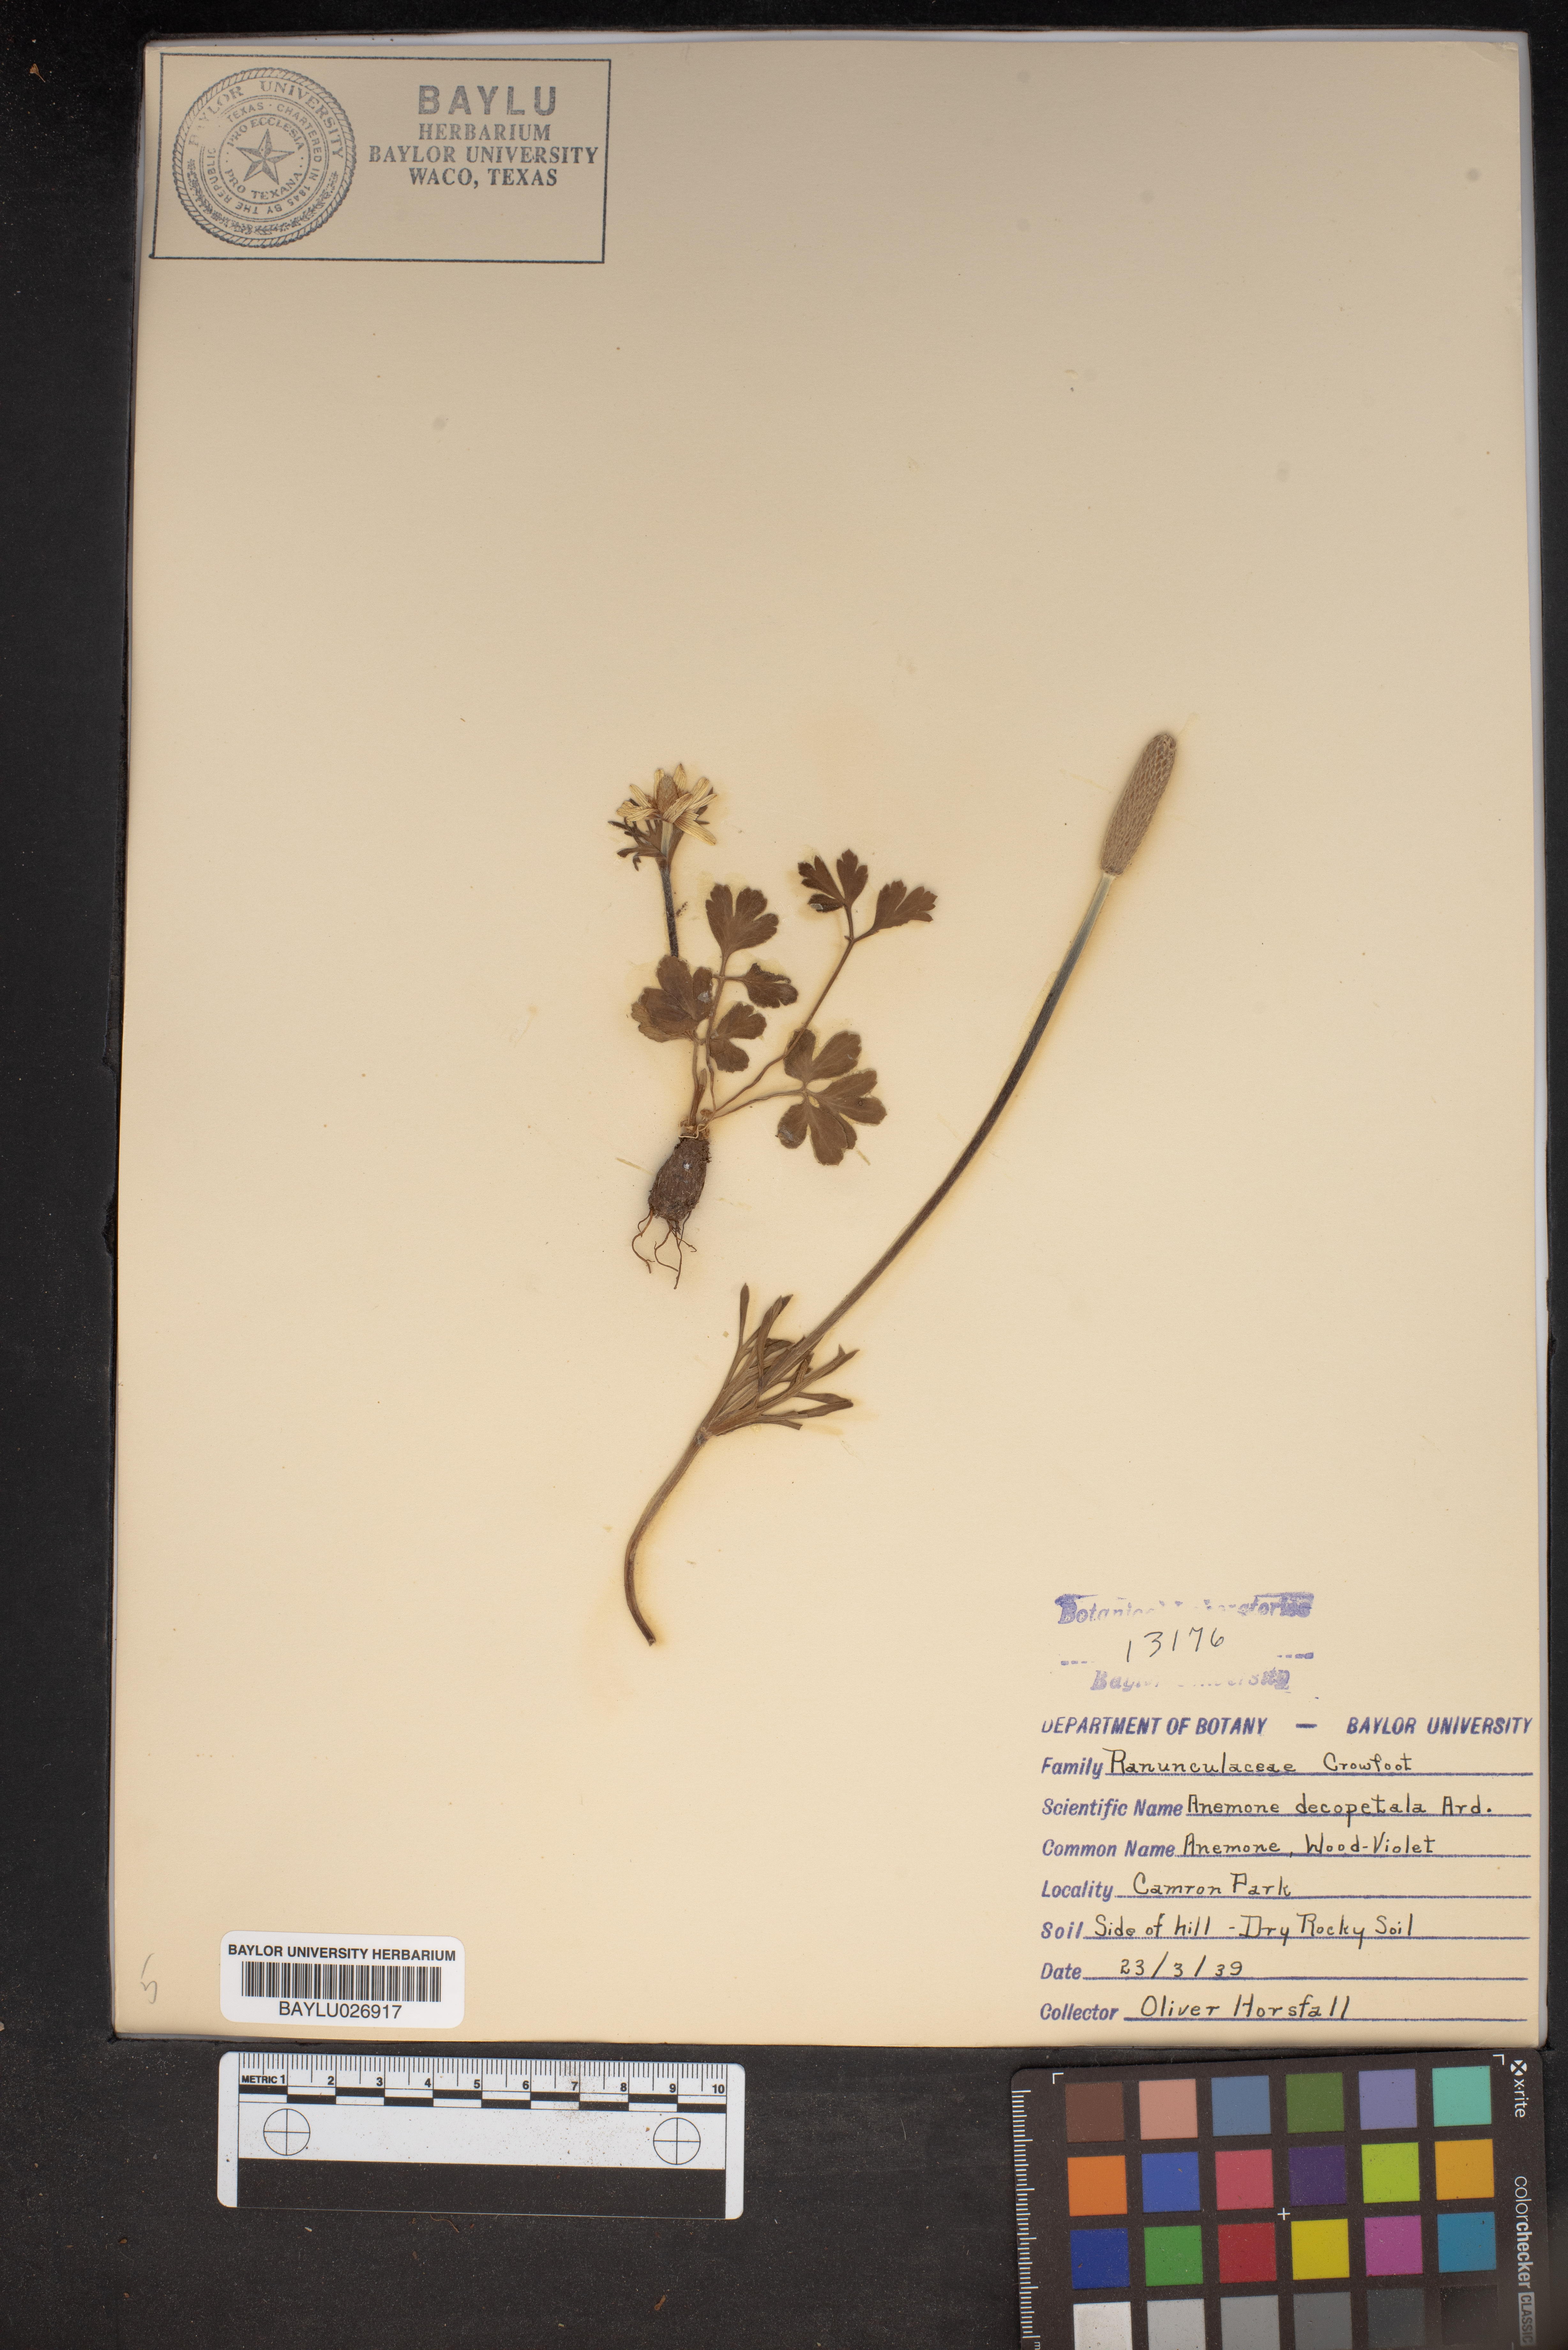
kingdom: Plantae
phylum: Tracheophyta
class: Magnoliopsida
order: Ranunculales
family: Ranunculaceae
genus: Anemone
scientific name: Anemone decapetala
